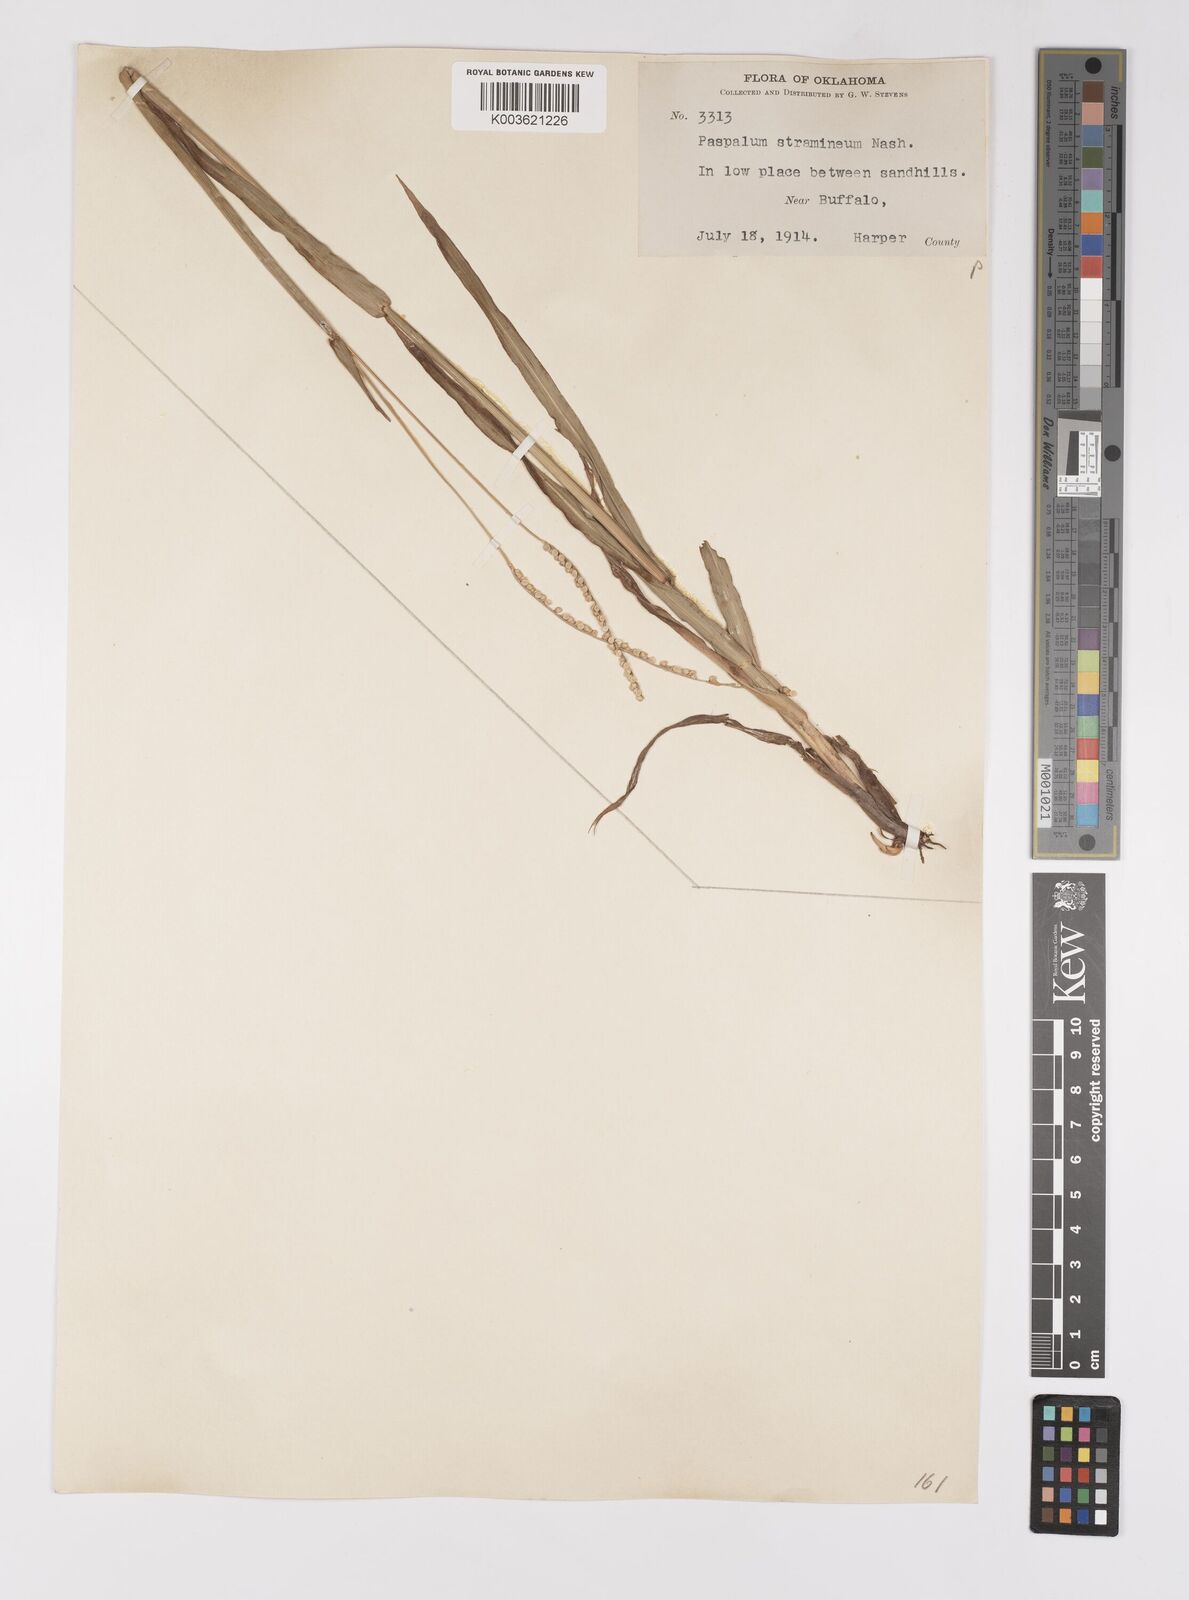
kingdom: Plantae
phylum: Tracheophyta
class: Liliopsida
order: Poales
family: Poaceae
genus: Paspalum
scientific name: Paspalum setaceum
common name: Slender paspalum
